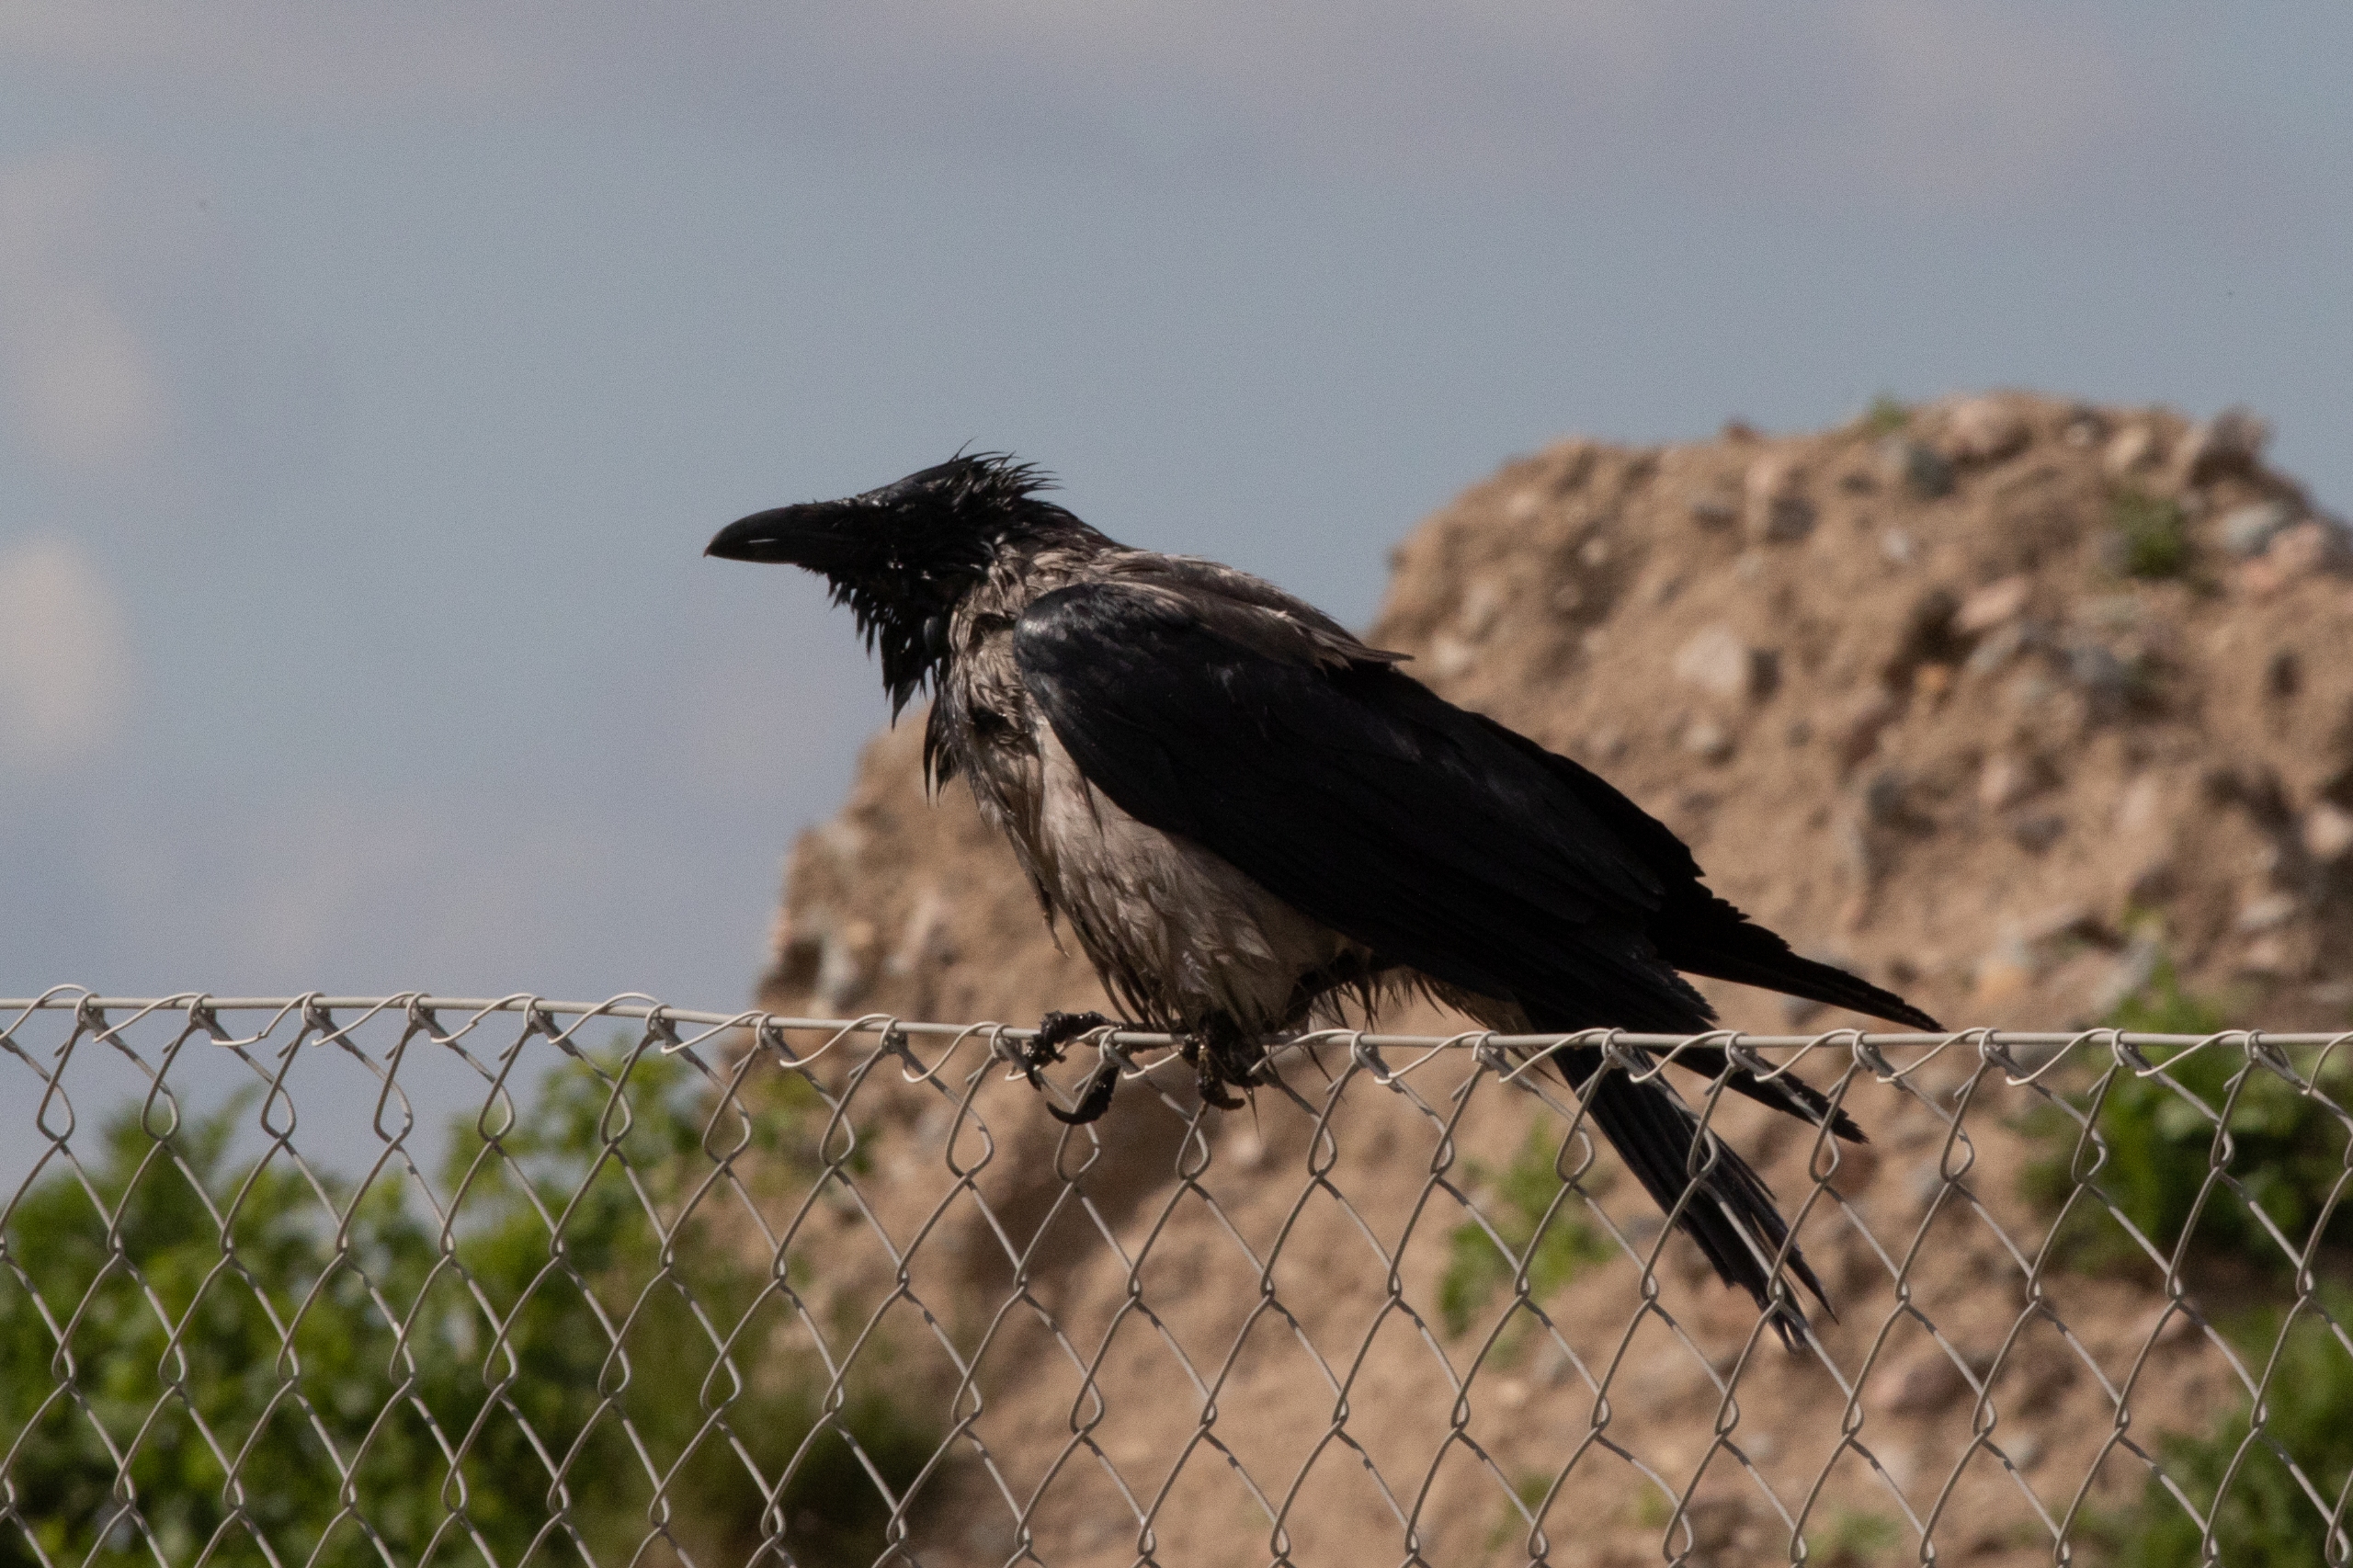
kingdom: Animalia
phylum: Chordata
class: Aves
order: Passeriformes
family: Corvidae
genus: Corvus
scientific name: Corvus cornix
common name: Gråkrage
